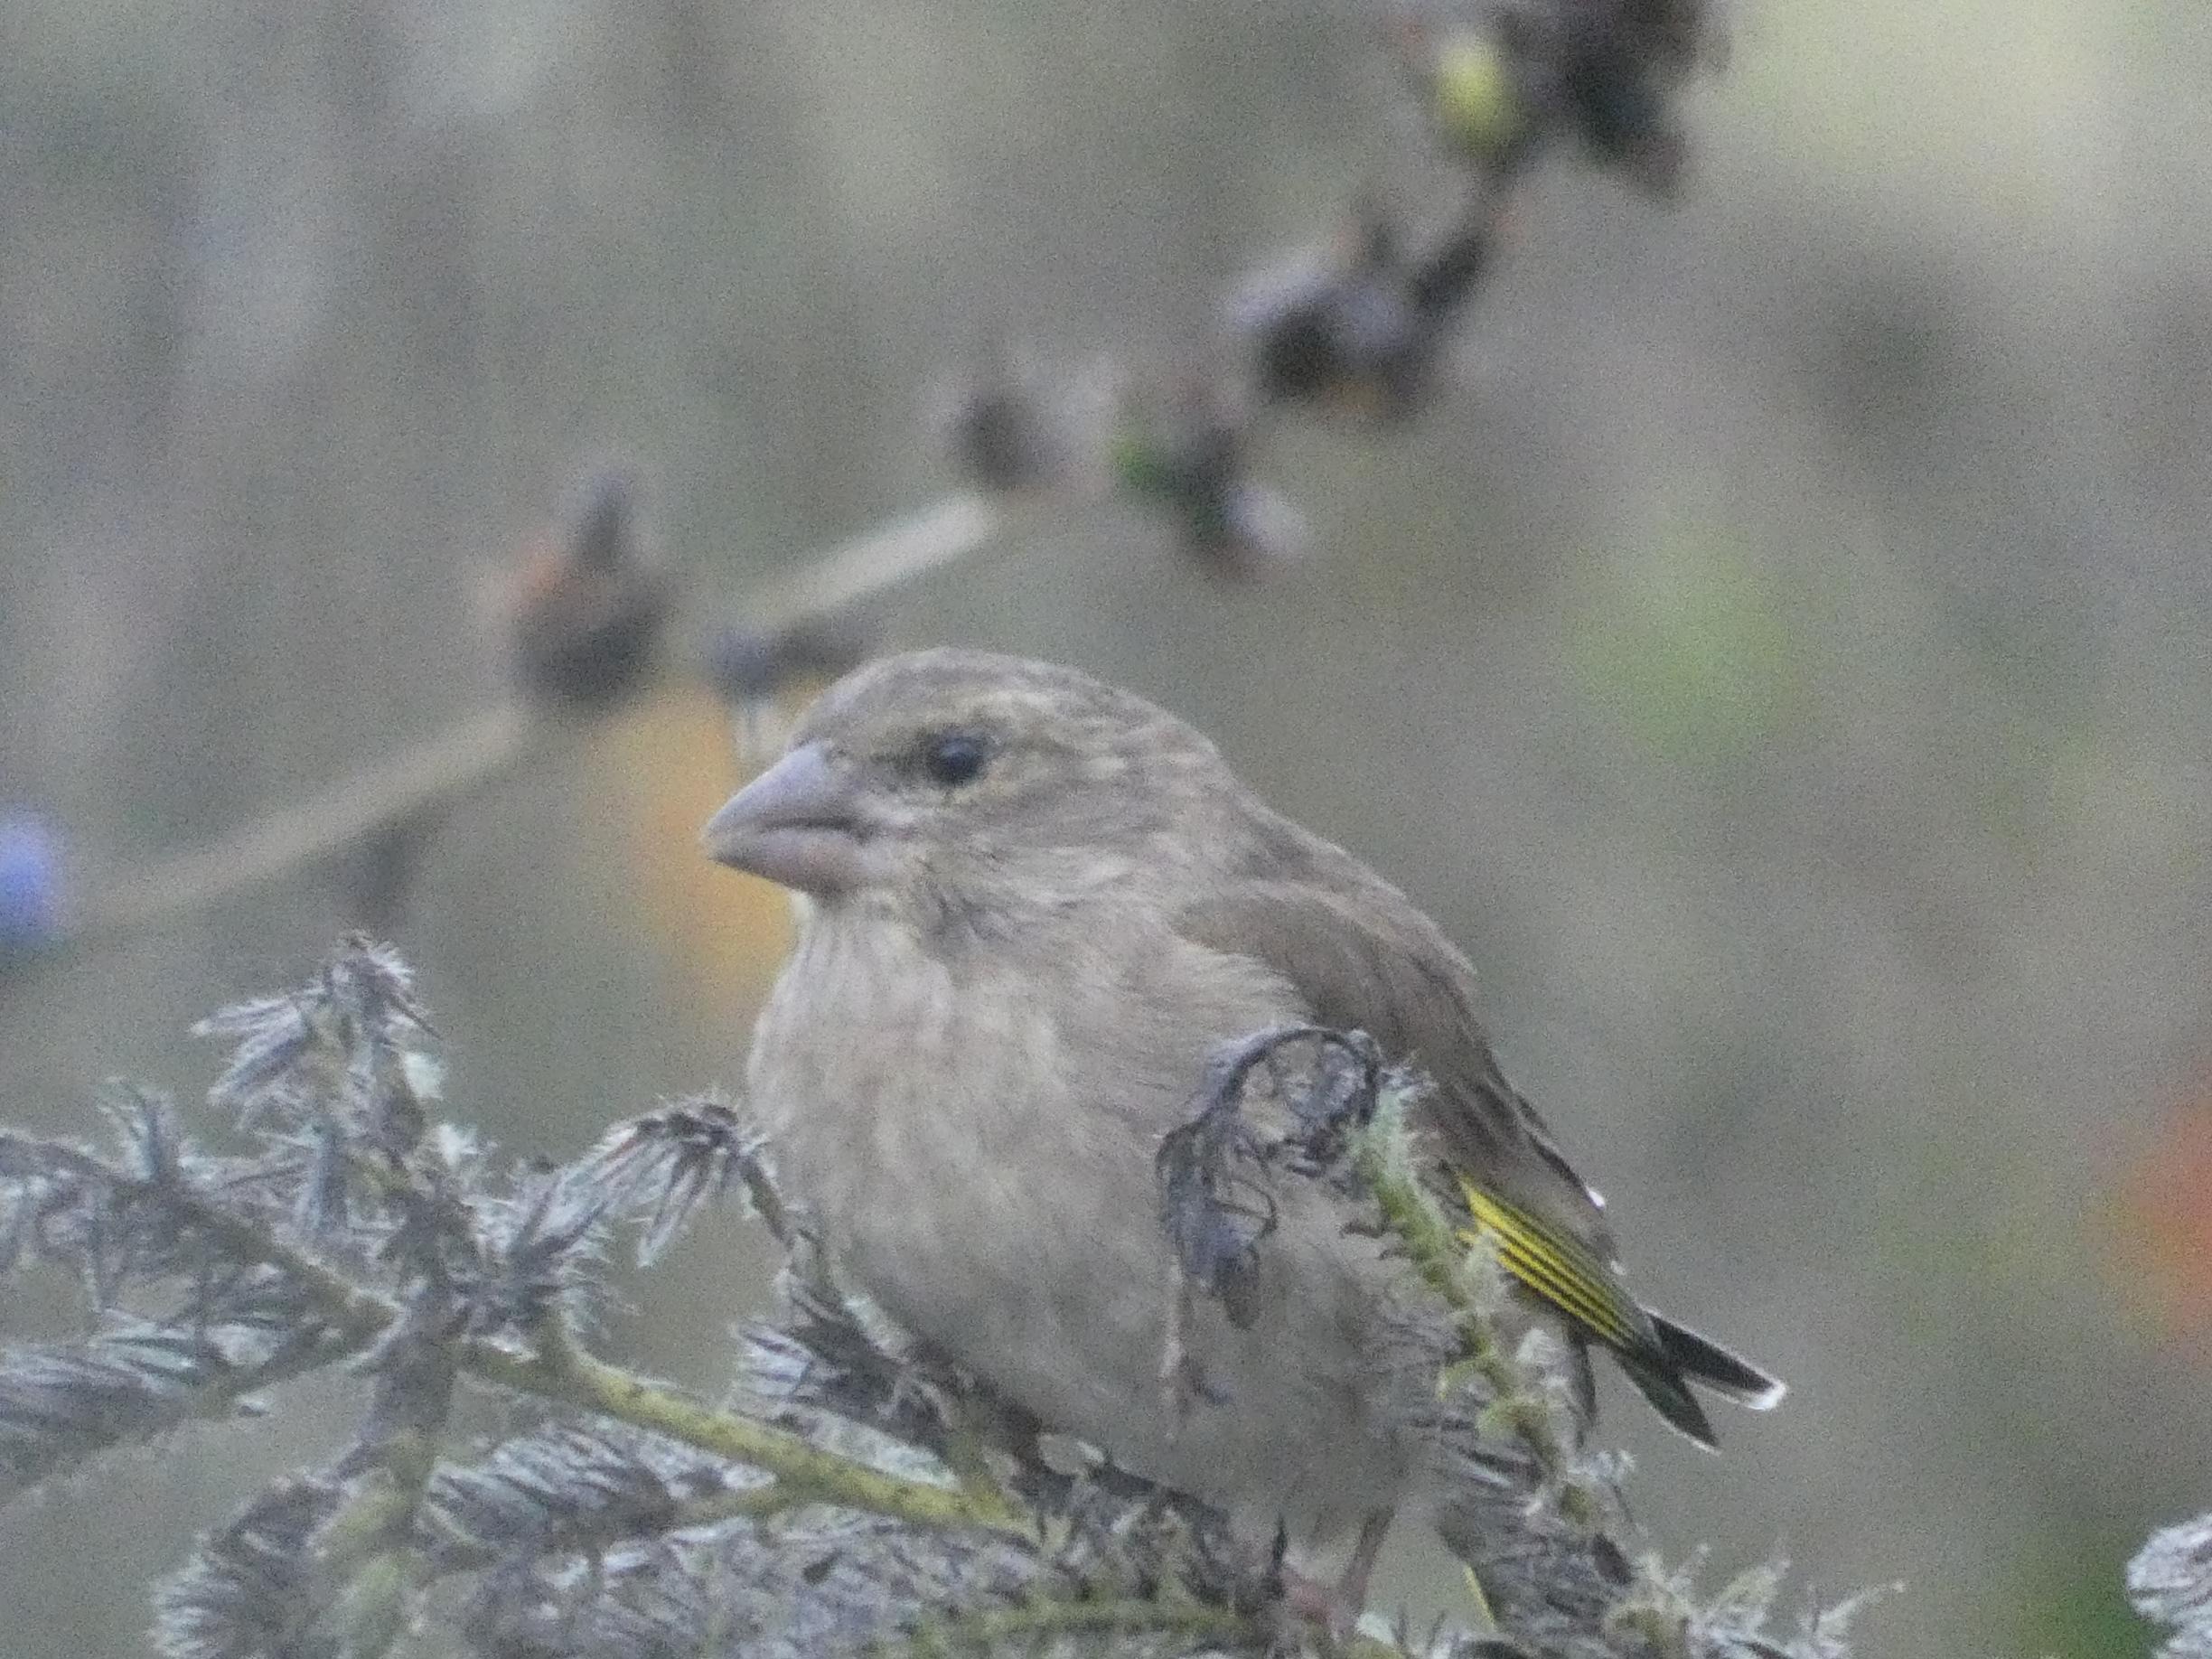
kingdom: Plantae
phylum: Tracheophyta
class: Liliopsida
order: Poales
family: Poaceae
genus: Chloris
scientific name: Chloris chloris
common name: Grønirisk
